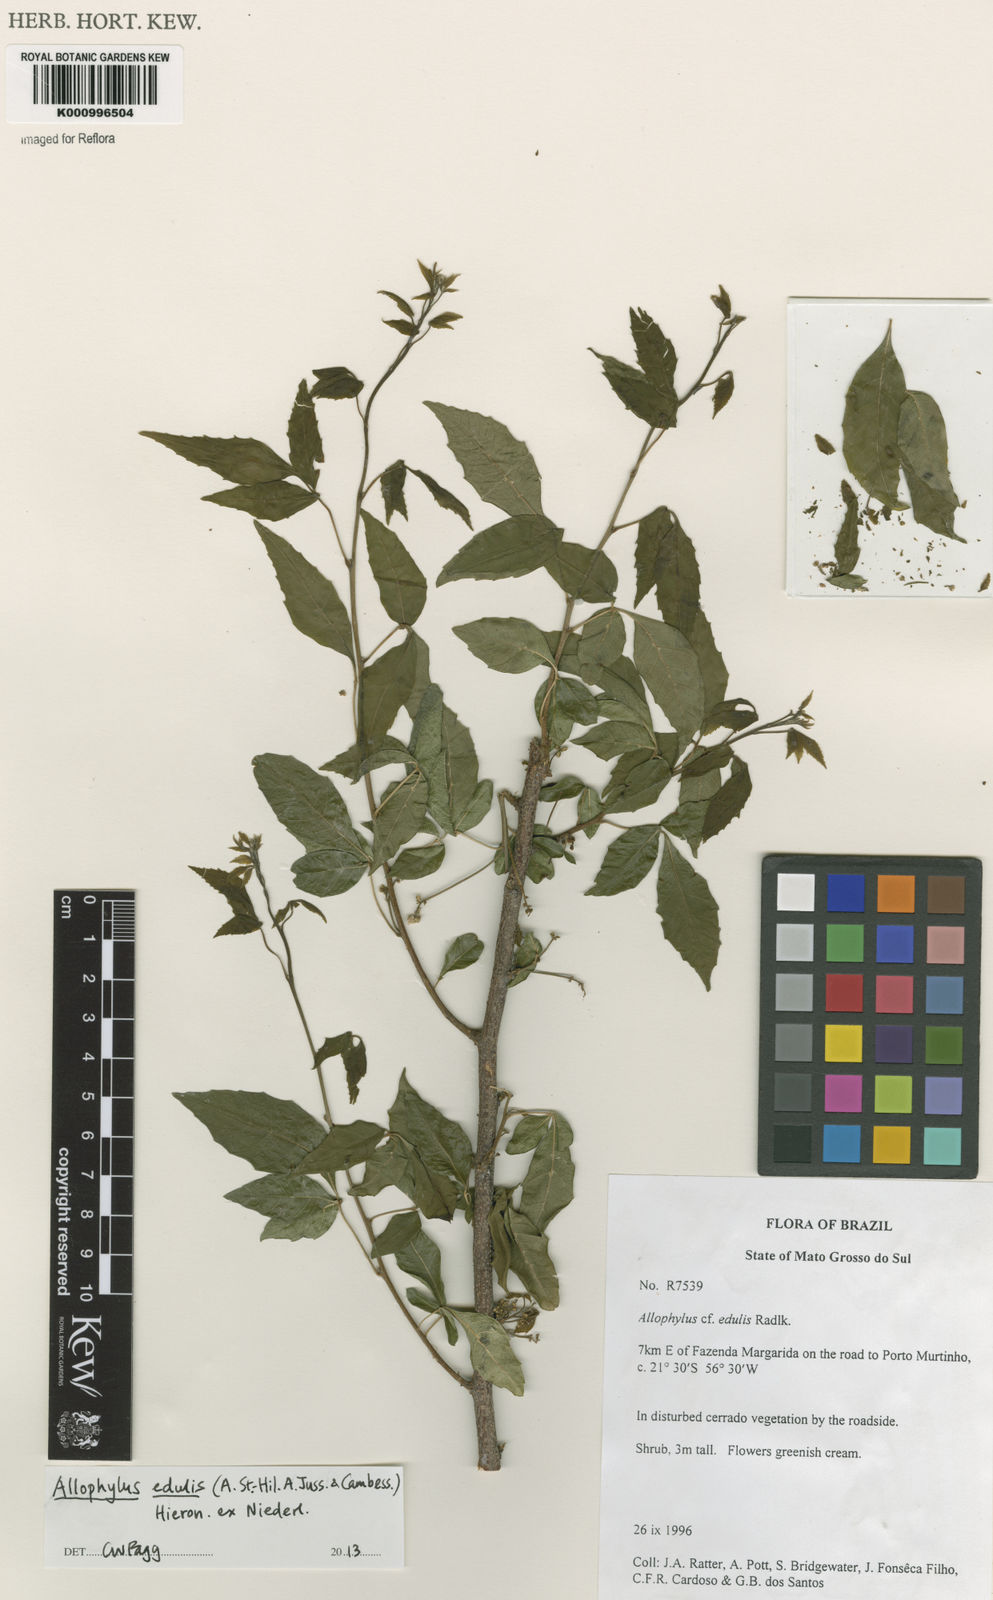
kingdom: Plantae
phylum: Tracheophyta
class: Magnoliopsida
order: Sapindales
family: Sapindaceae
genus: Allophylus
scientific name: Allophylus edulis
